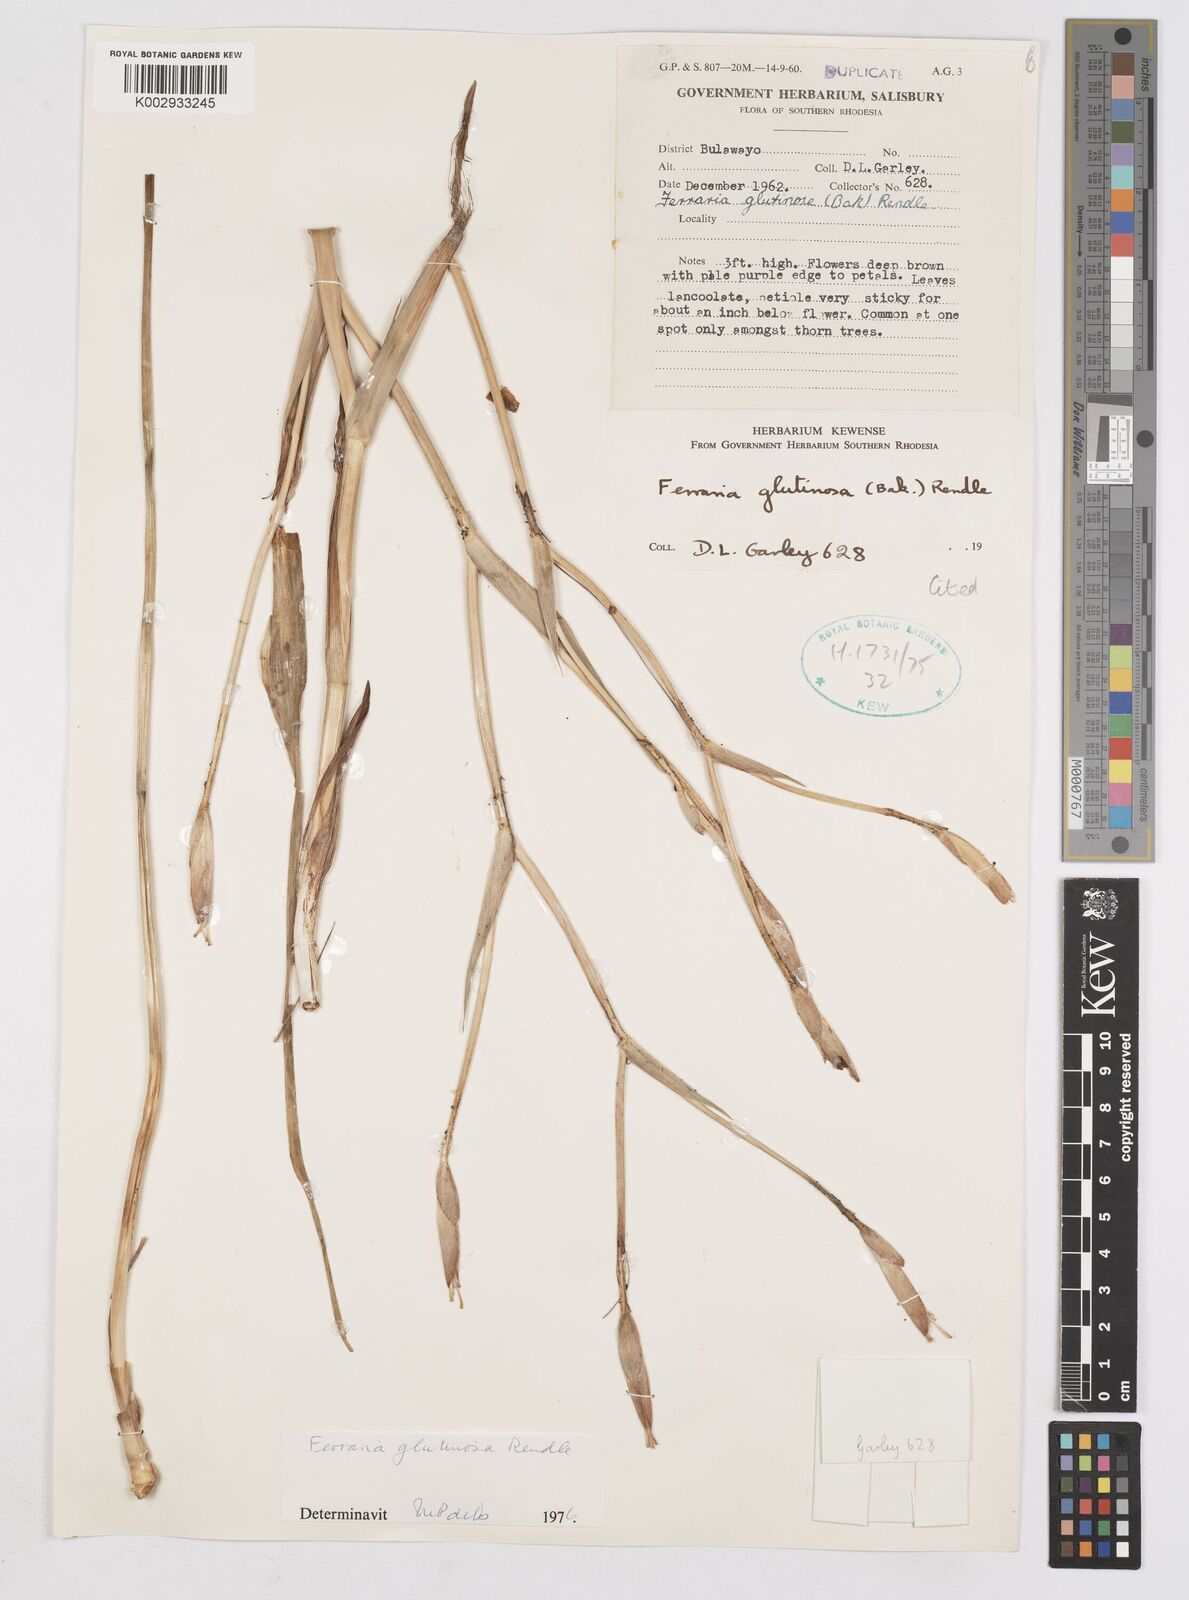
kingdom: Plantae
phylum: Tracheophyta
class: Liliopsida
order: Asparagales
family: Iridaceae
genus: Ferraria
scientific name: Ferraria glutinosa
